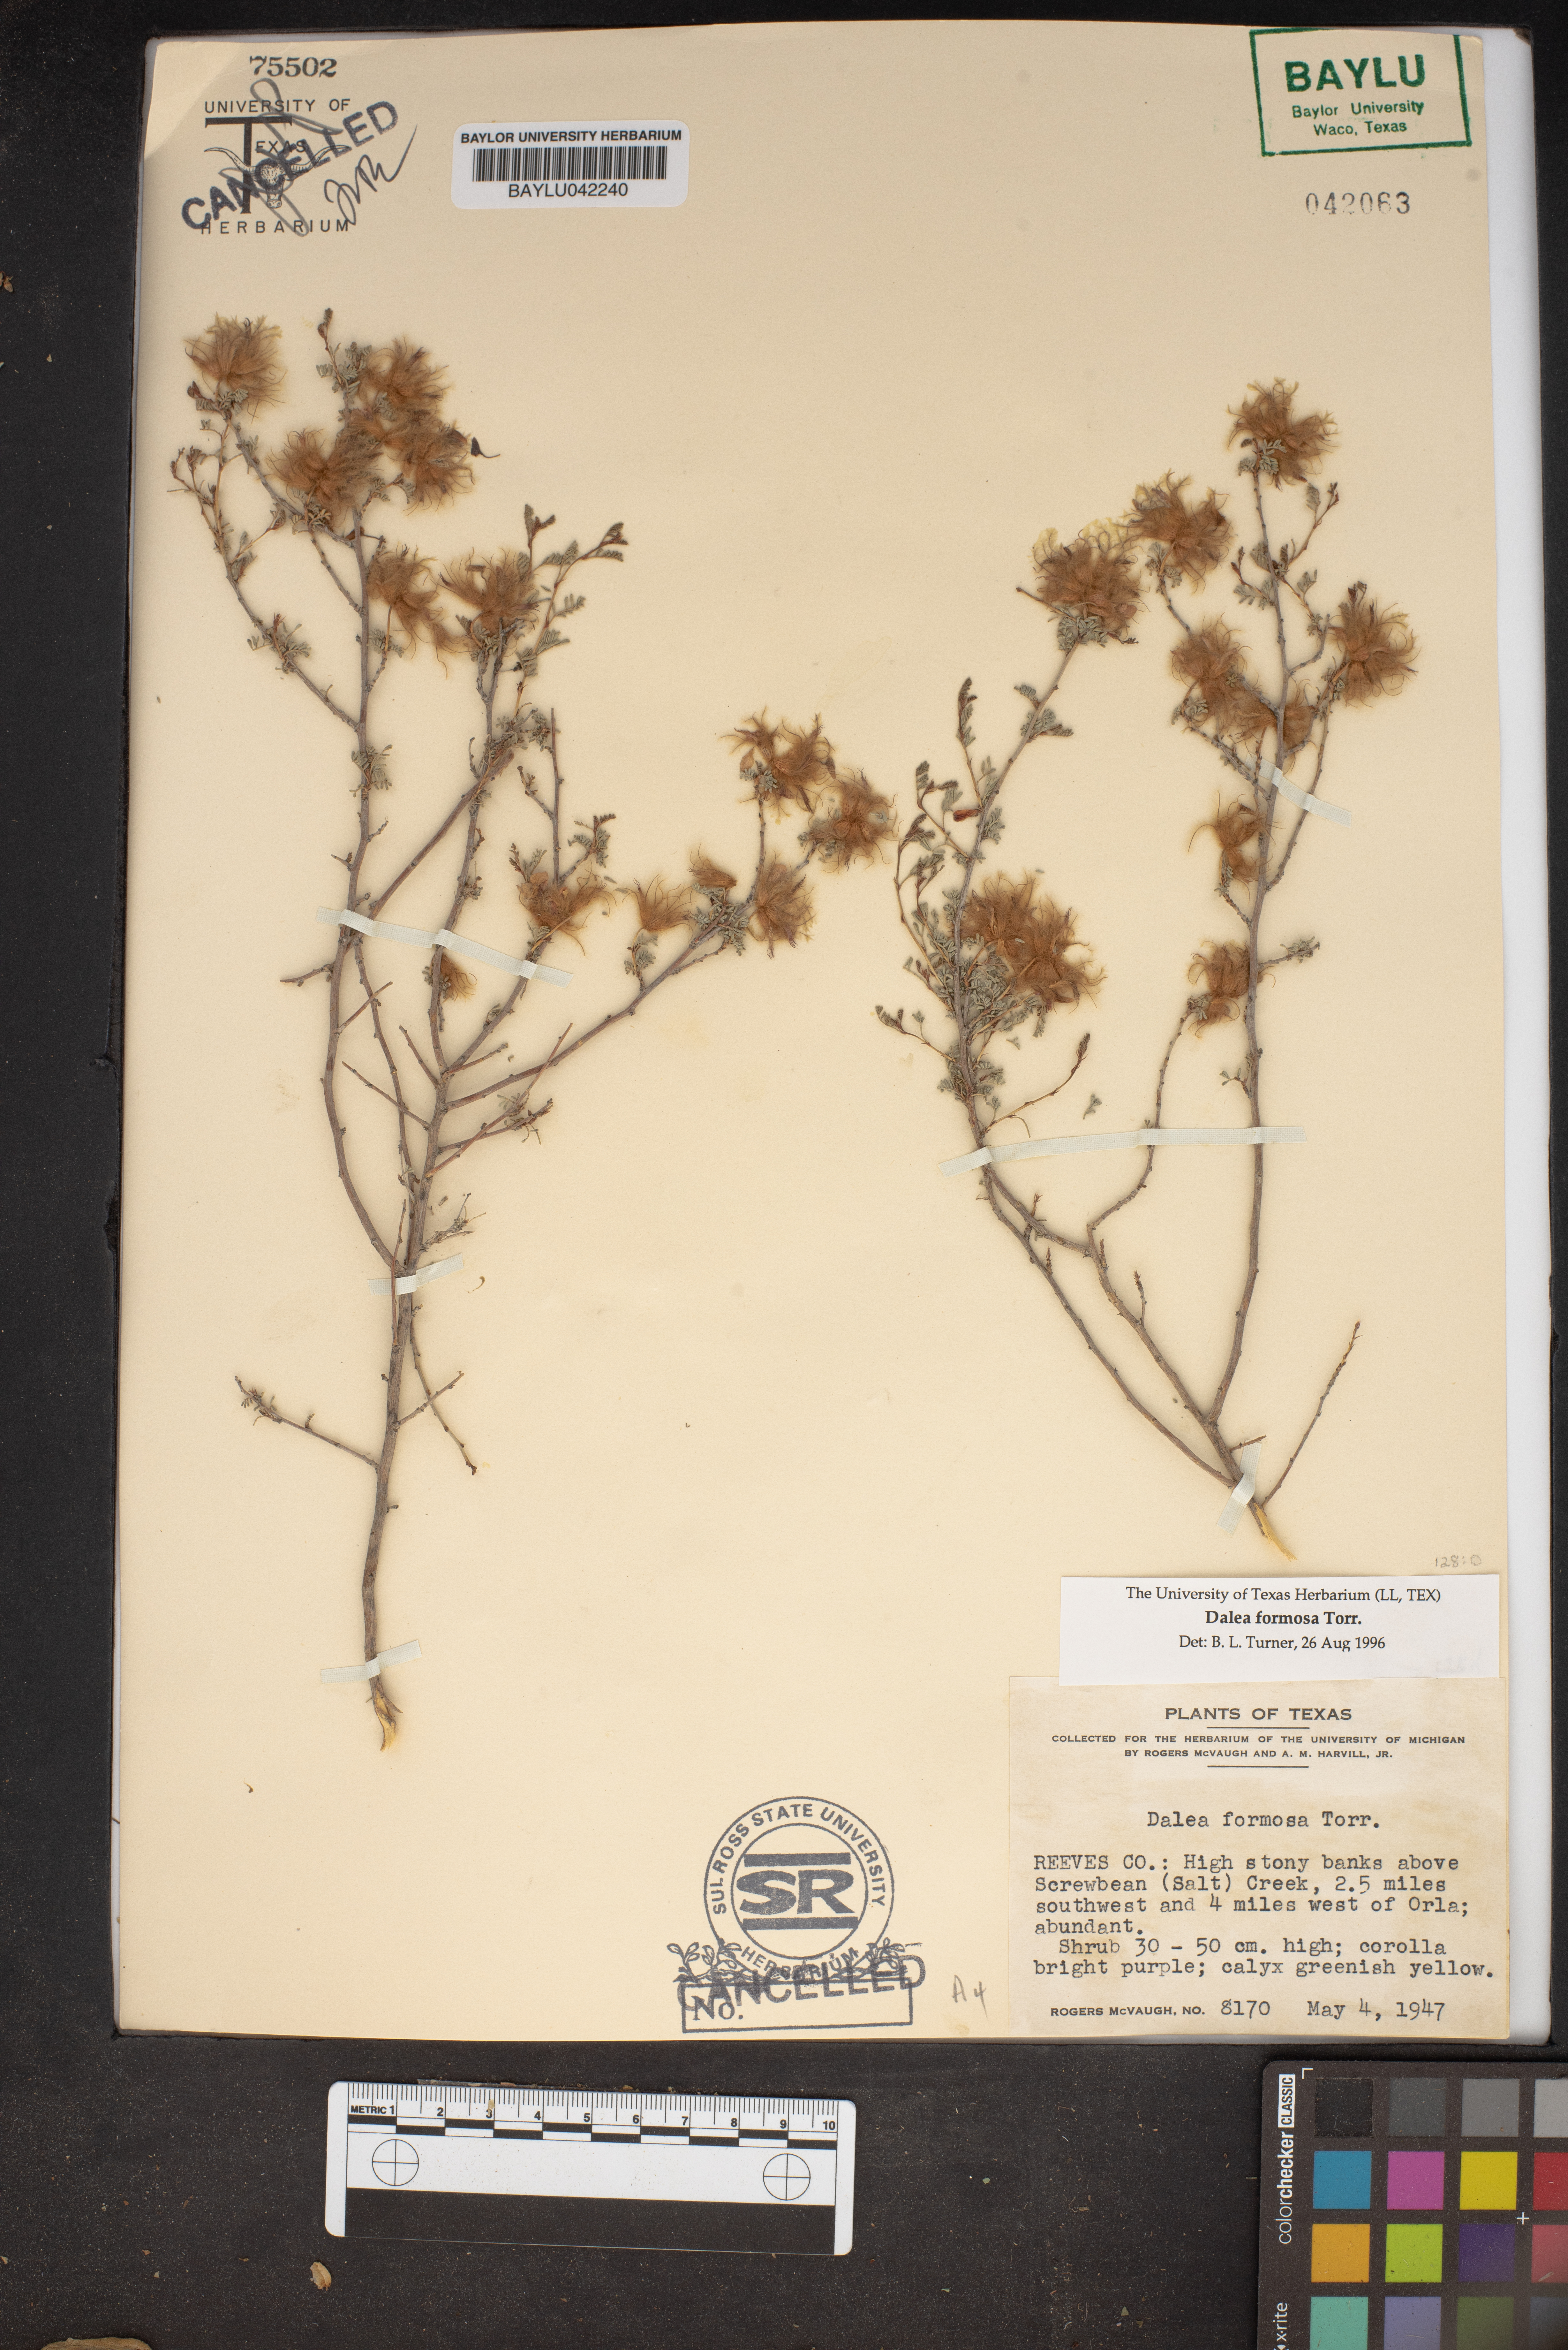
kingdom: Plantae
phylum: Tracheophyta
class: Magnoliopsida
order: Fabales
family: Fabaceae
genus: Dalea
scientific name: Dalea formosa
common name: Feather-plume dalea
